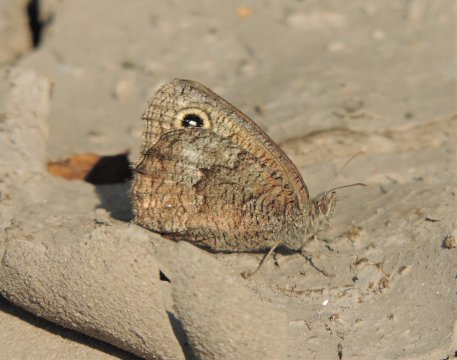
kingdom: Animalia
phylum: Arthropoda
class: Insecta
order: Lepidoptera
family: Nymphalidae
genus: Cercyonis
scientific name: Cercyonis sthenele
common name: Great Basin Wood-Nymph
